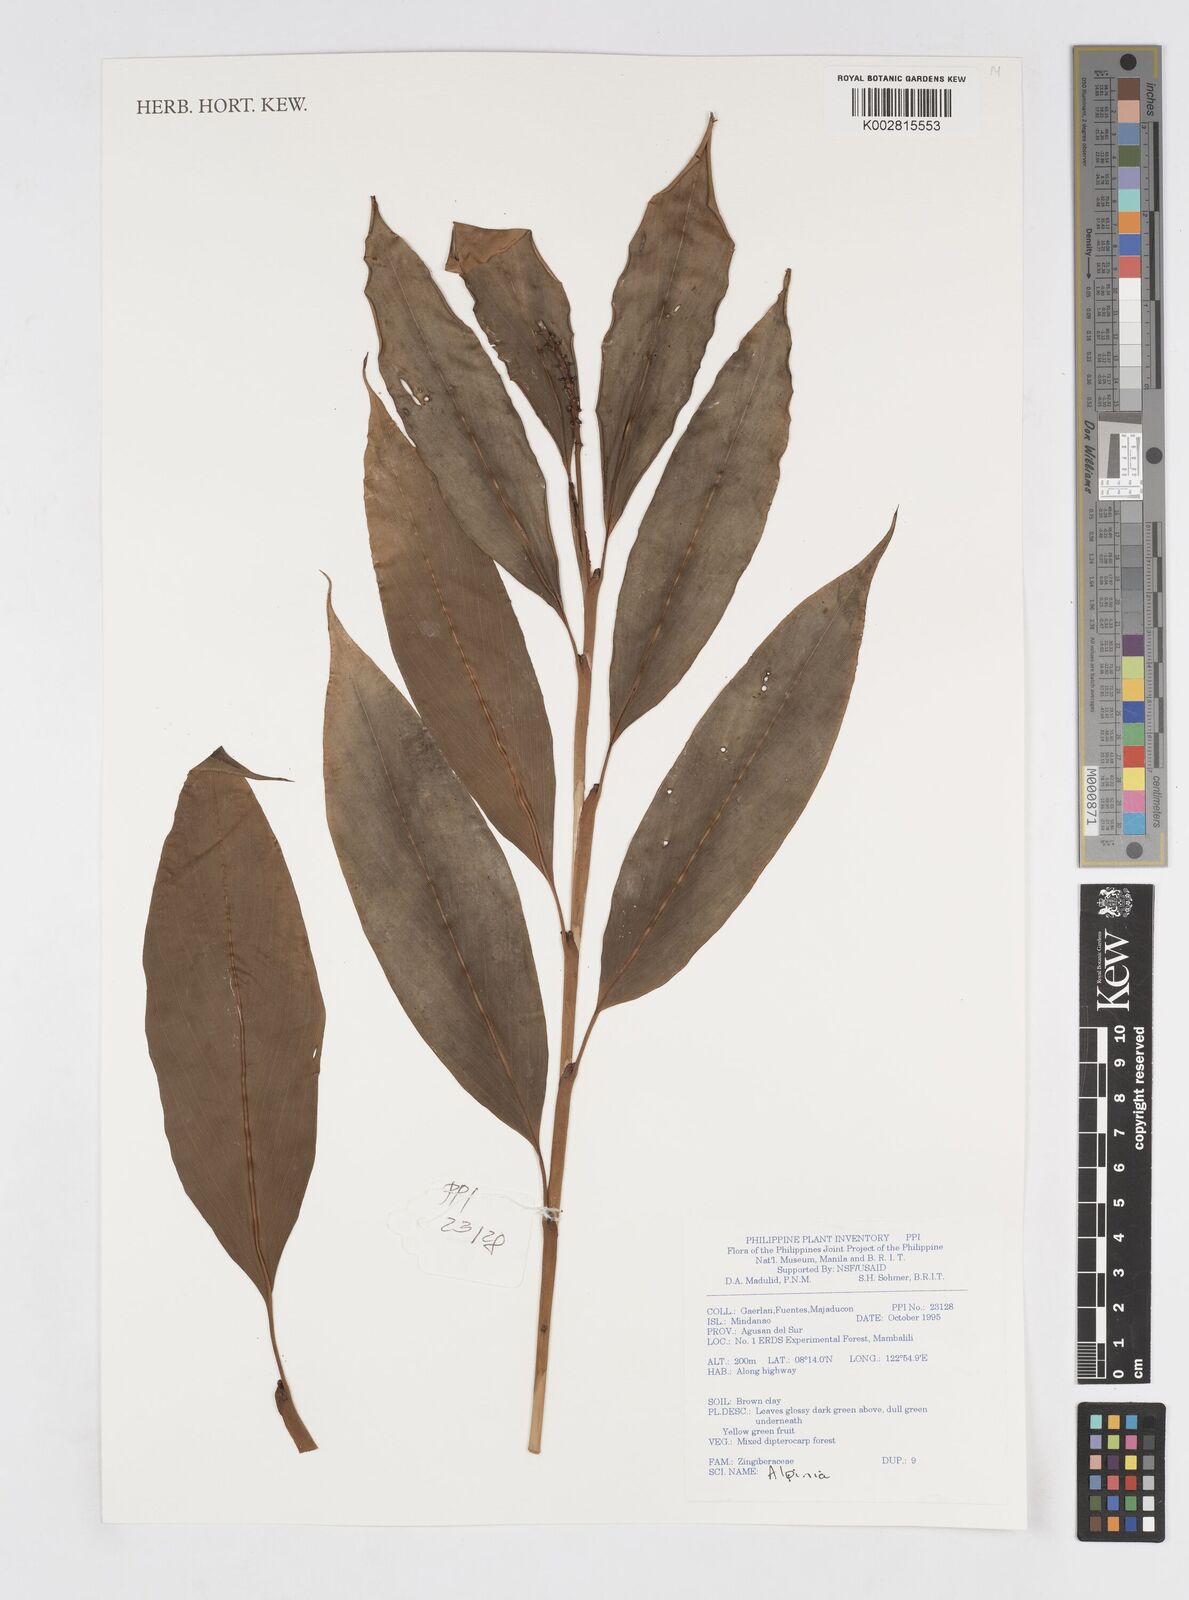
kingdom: Plantae
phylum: Tracheophyta
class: Liliopsida
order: Zingiberales
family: Zingiberaceae
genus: Alpinia
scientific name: Alpinia
